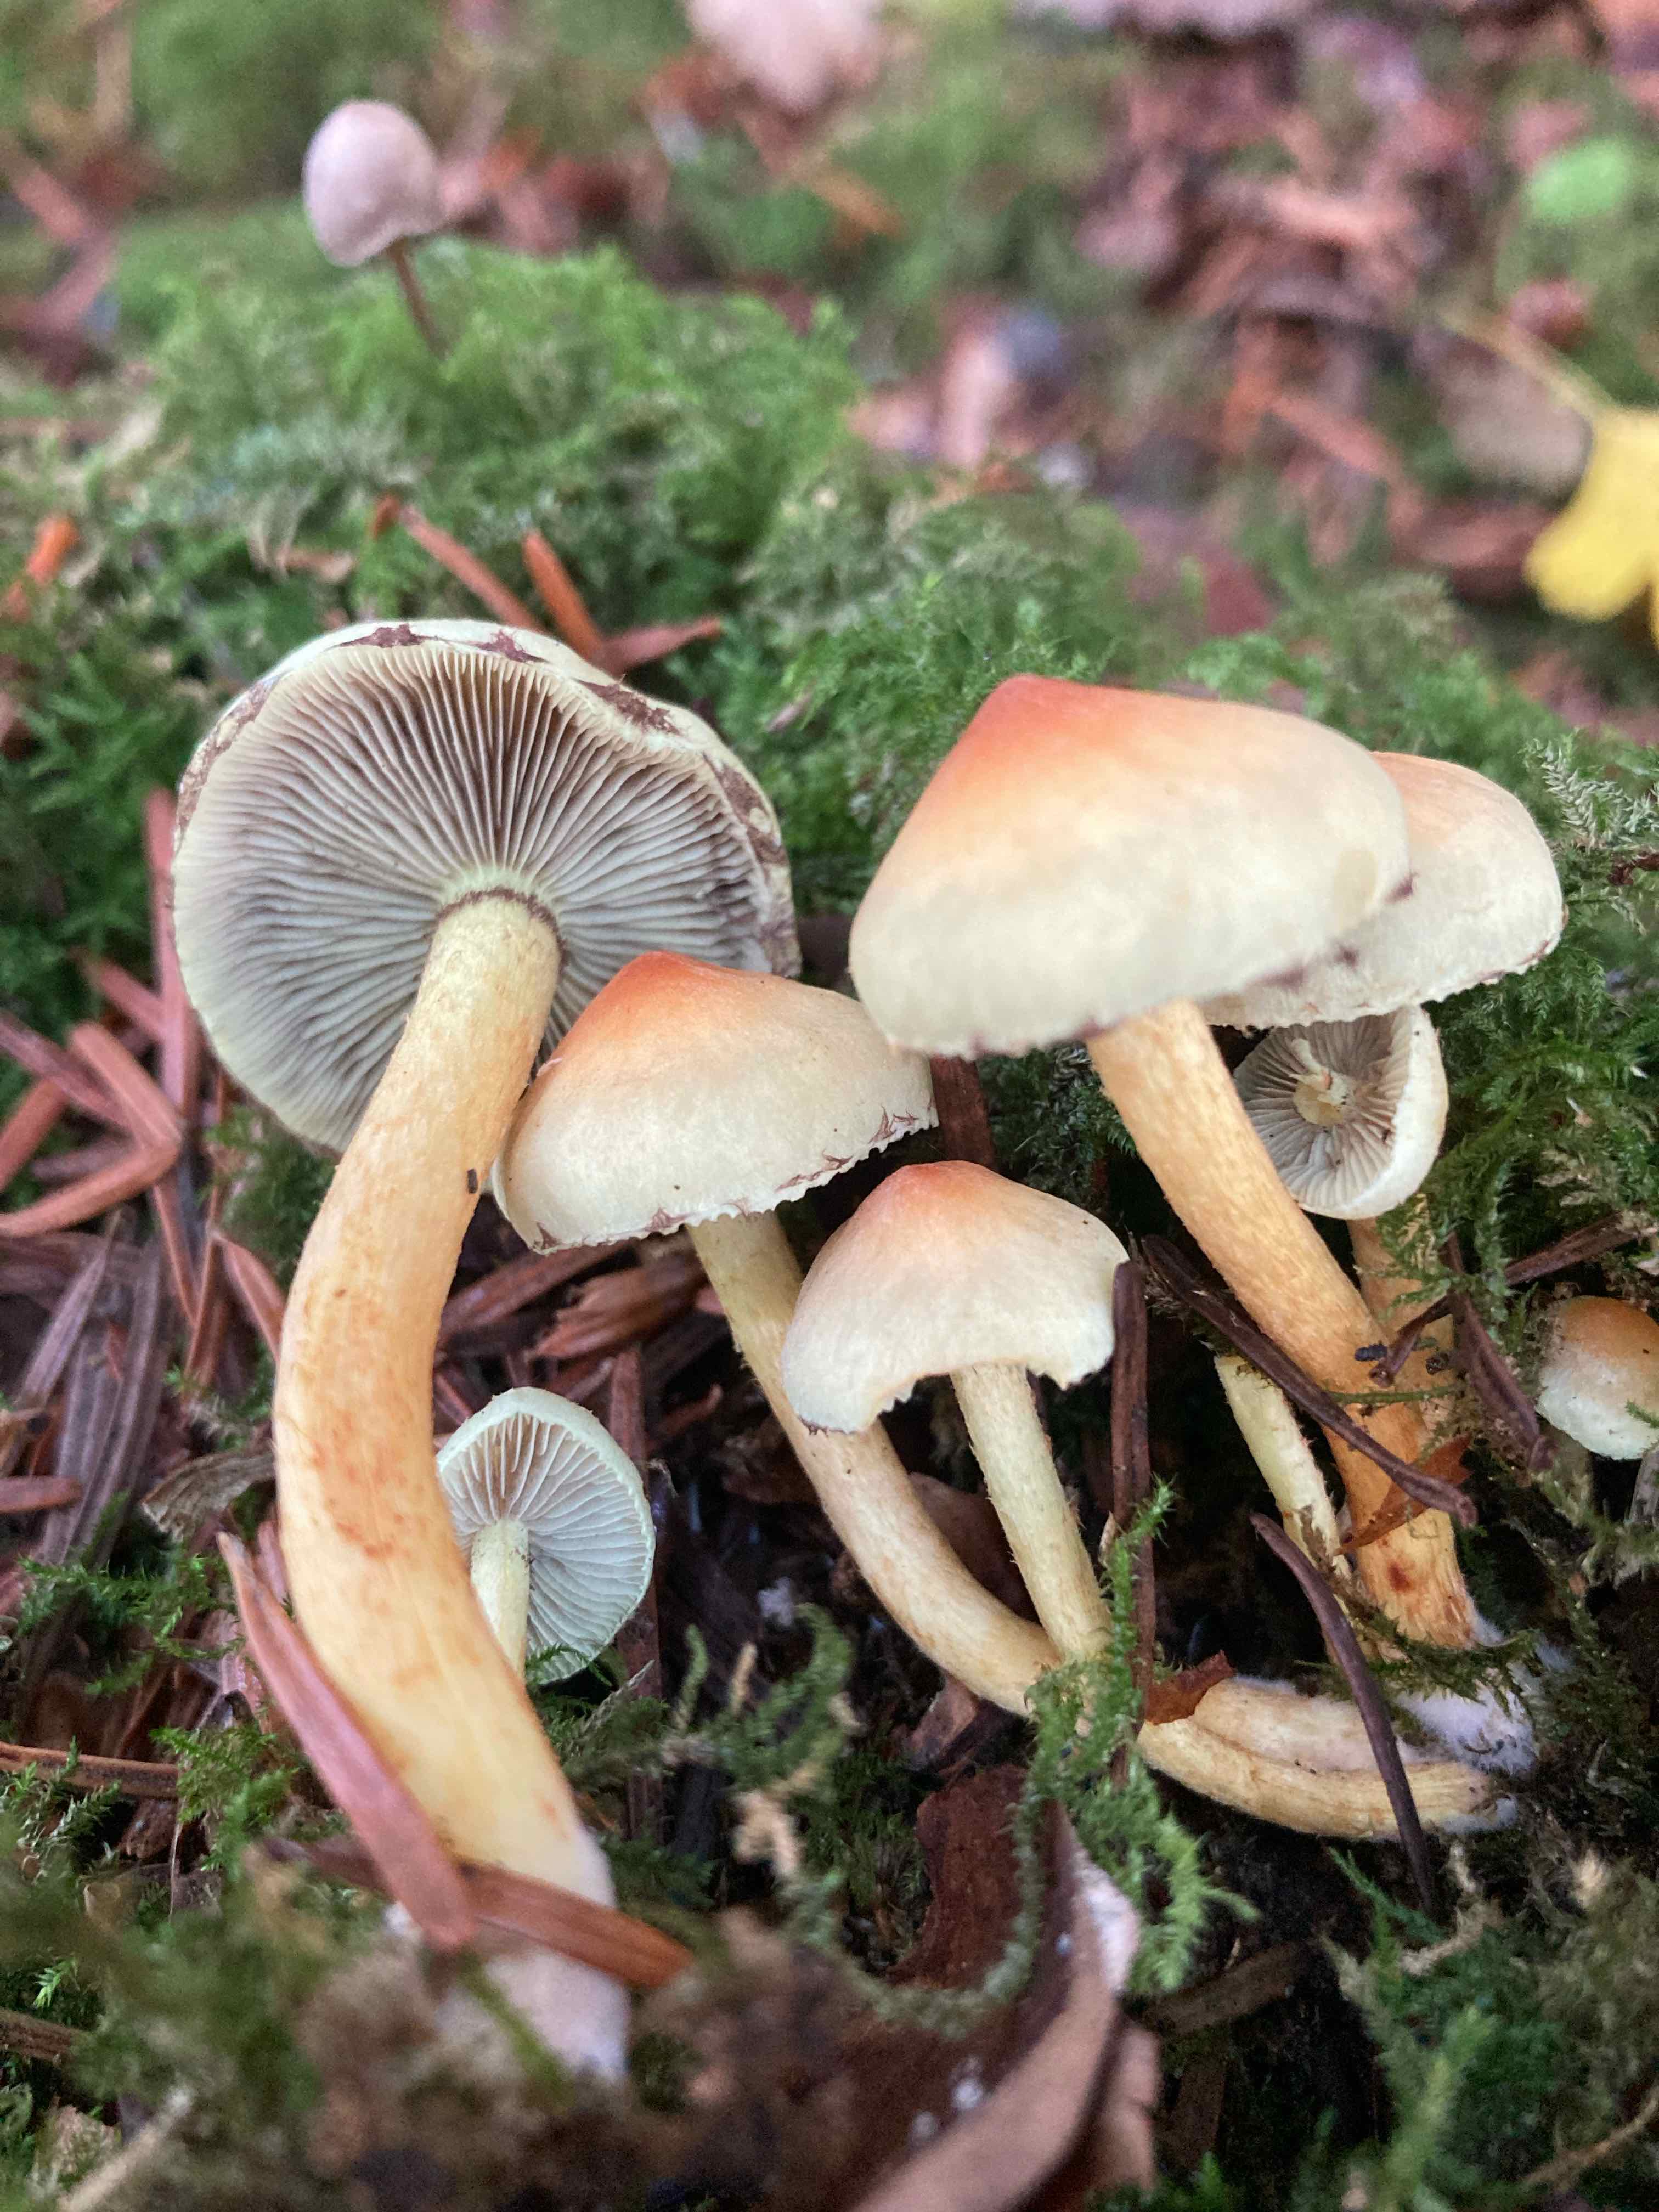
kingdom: Fungi
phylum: Basidiomycota
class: Agaricomycetes
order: Agaricales
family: Strophariaceae
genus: Hypholoma
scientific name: Hypholoma fasciculare
